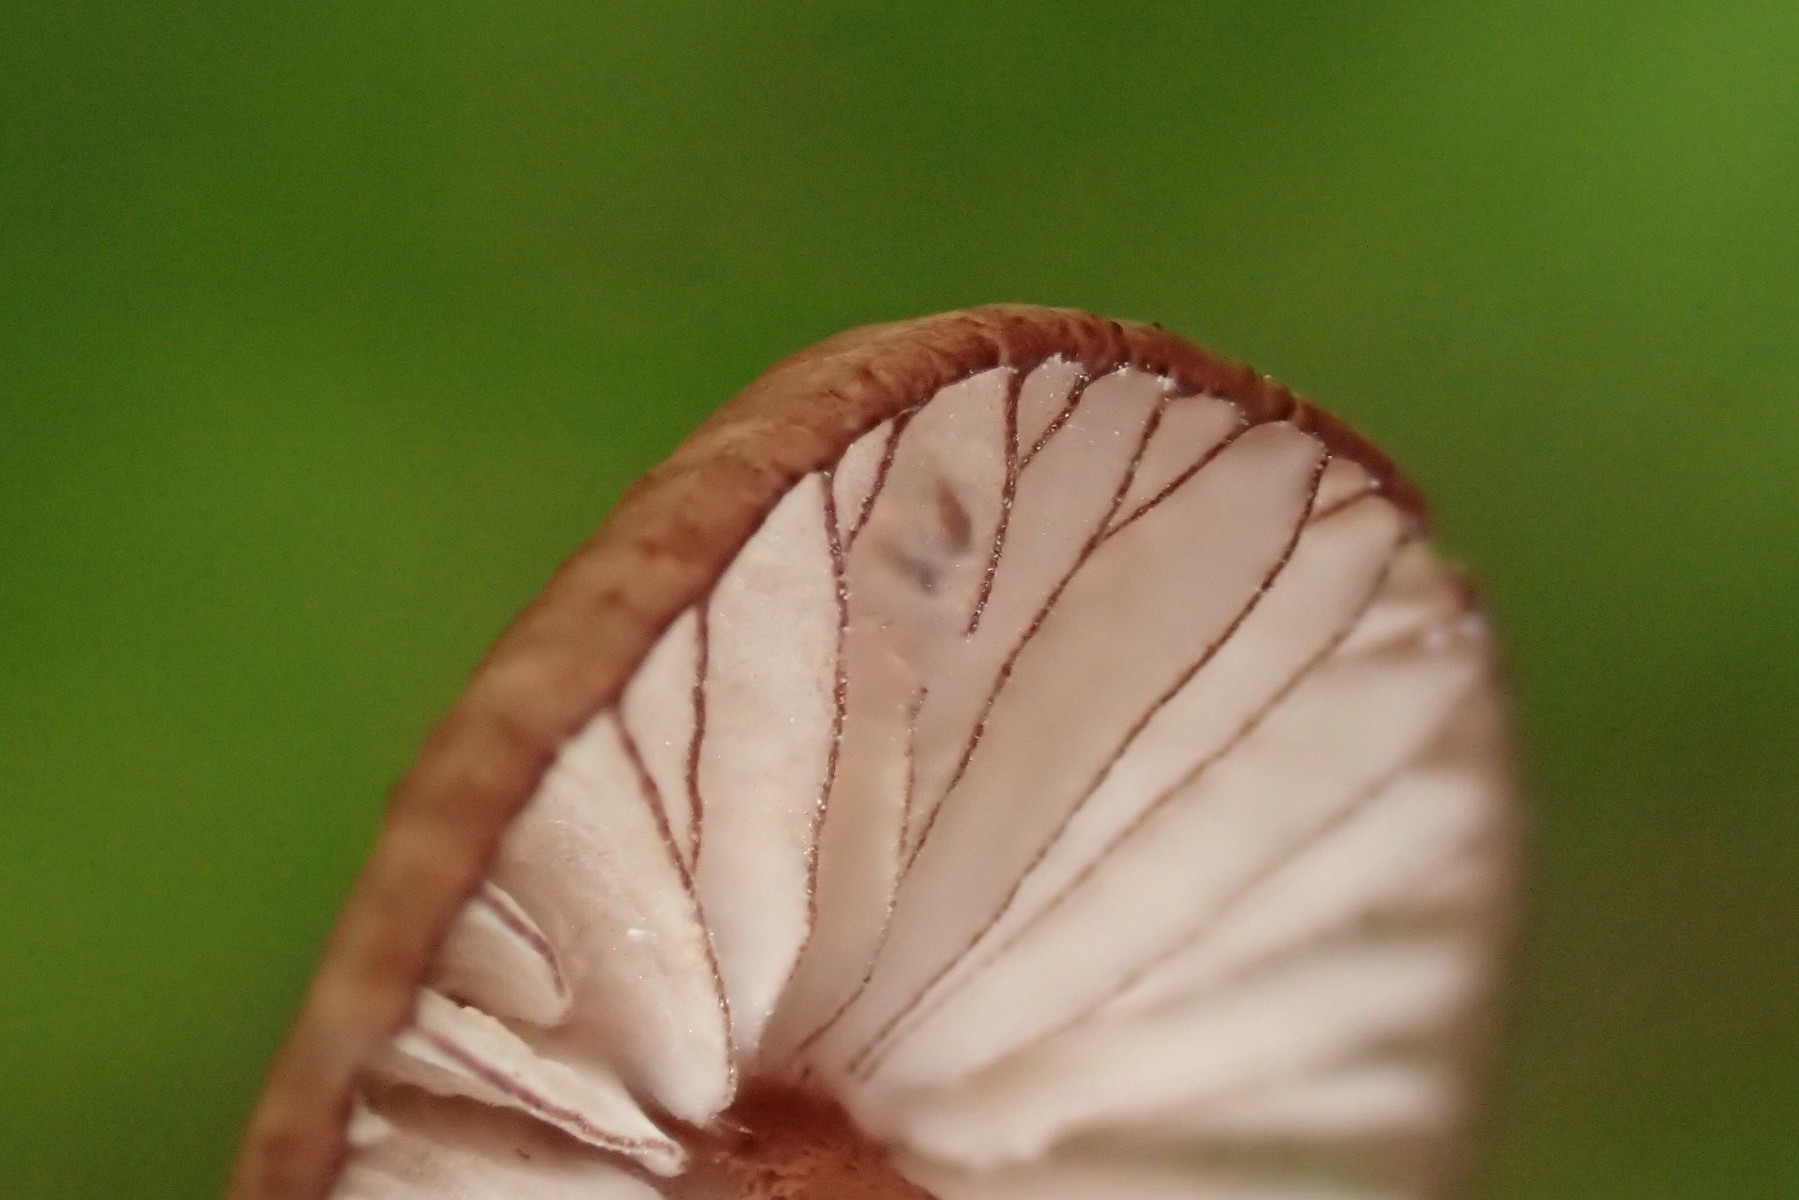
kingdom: Fungi
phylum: Basidiomycota
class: Agaricomycetes
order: Agaricales
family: Mycenaceae
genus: Mycena
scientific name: Mycena sanguinolenta
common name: rødmælket huesvamp
